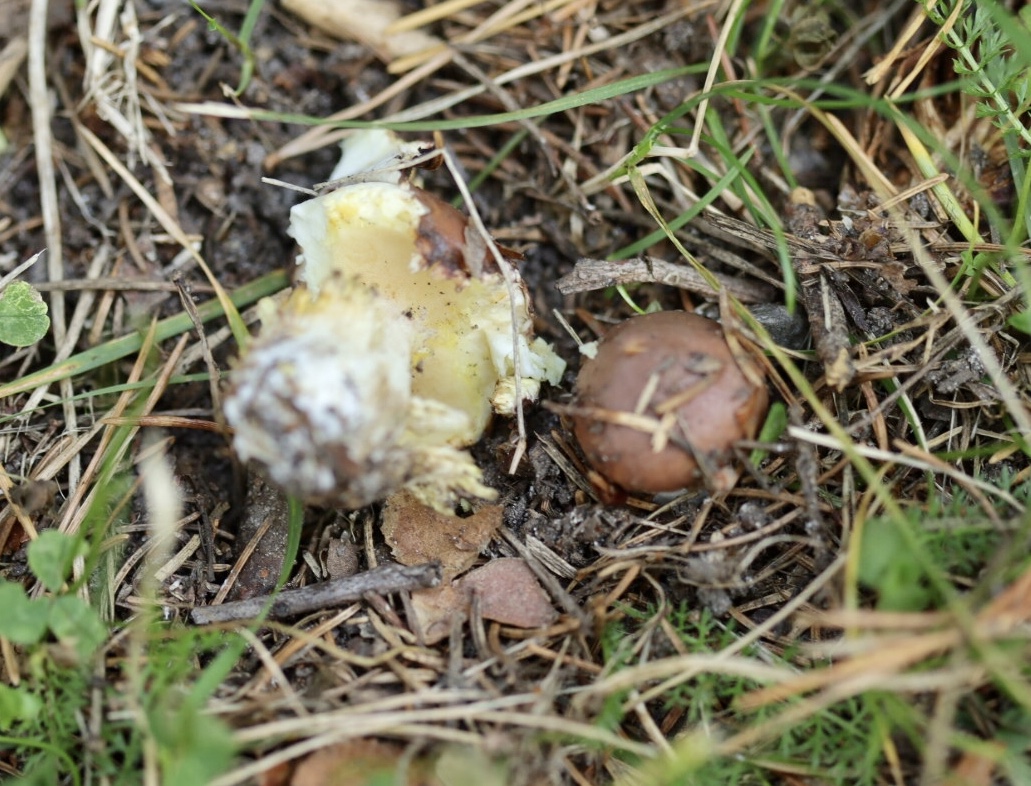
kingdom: Fungi
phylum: Basidiomycota
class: Agaricomycetes
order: Boletales
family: Suillaceae
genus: Suillus
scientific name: Suillus luteus
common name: brungul slimrørhat
